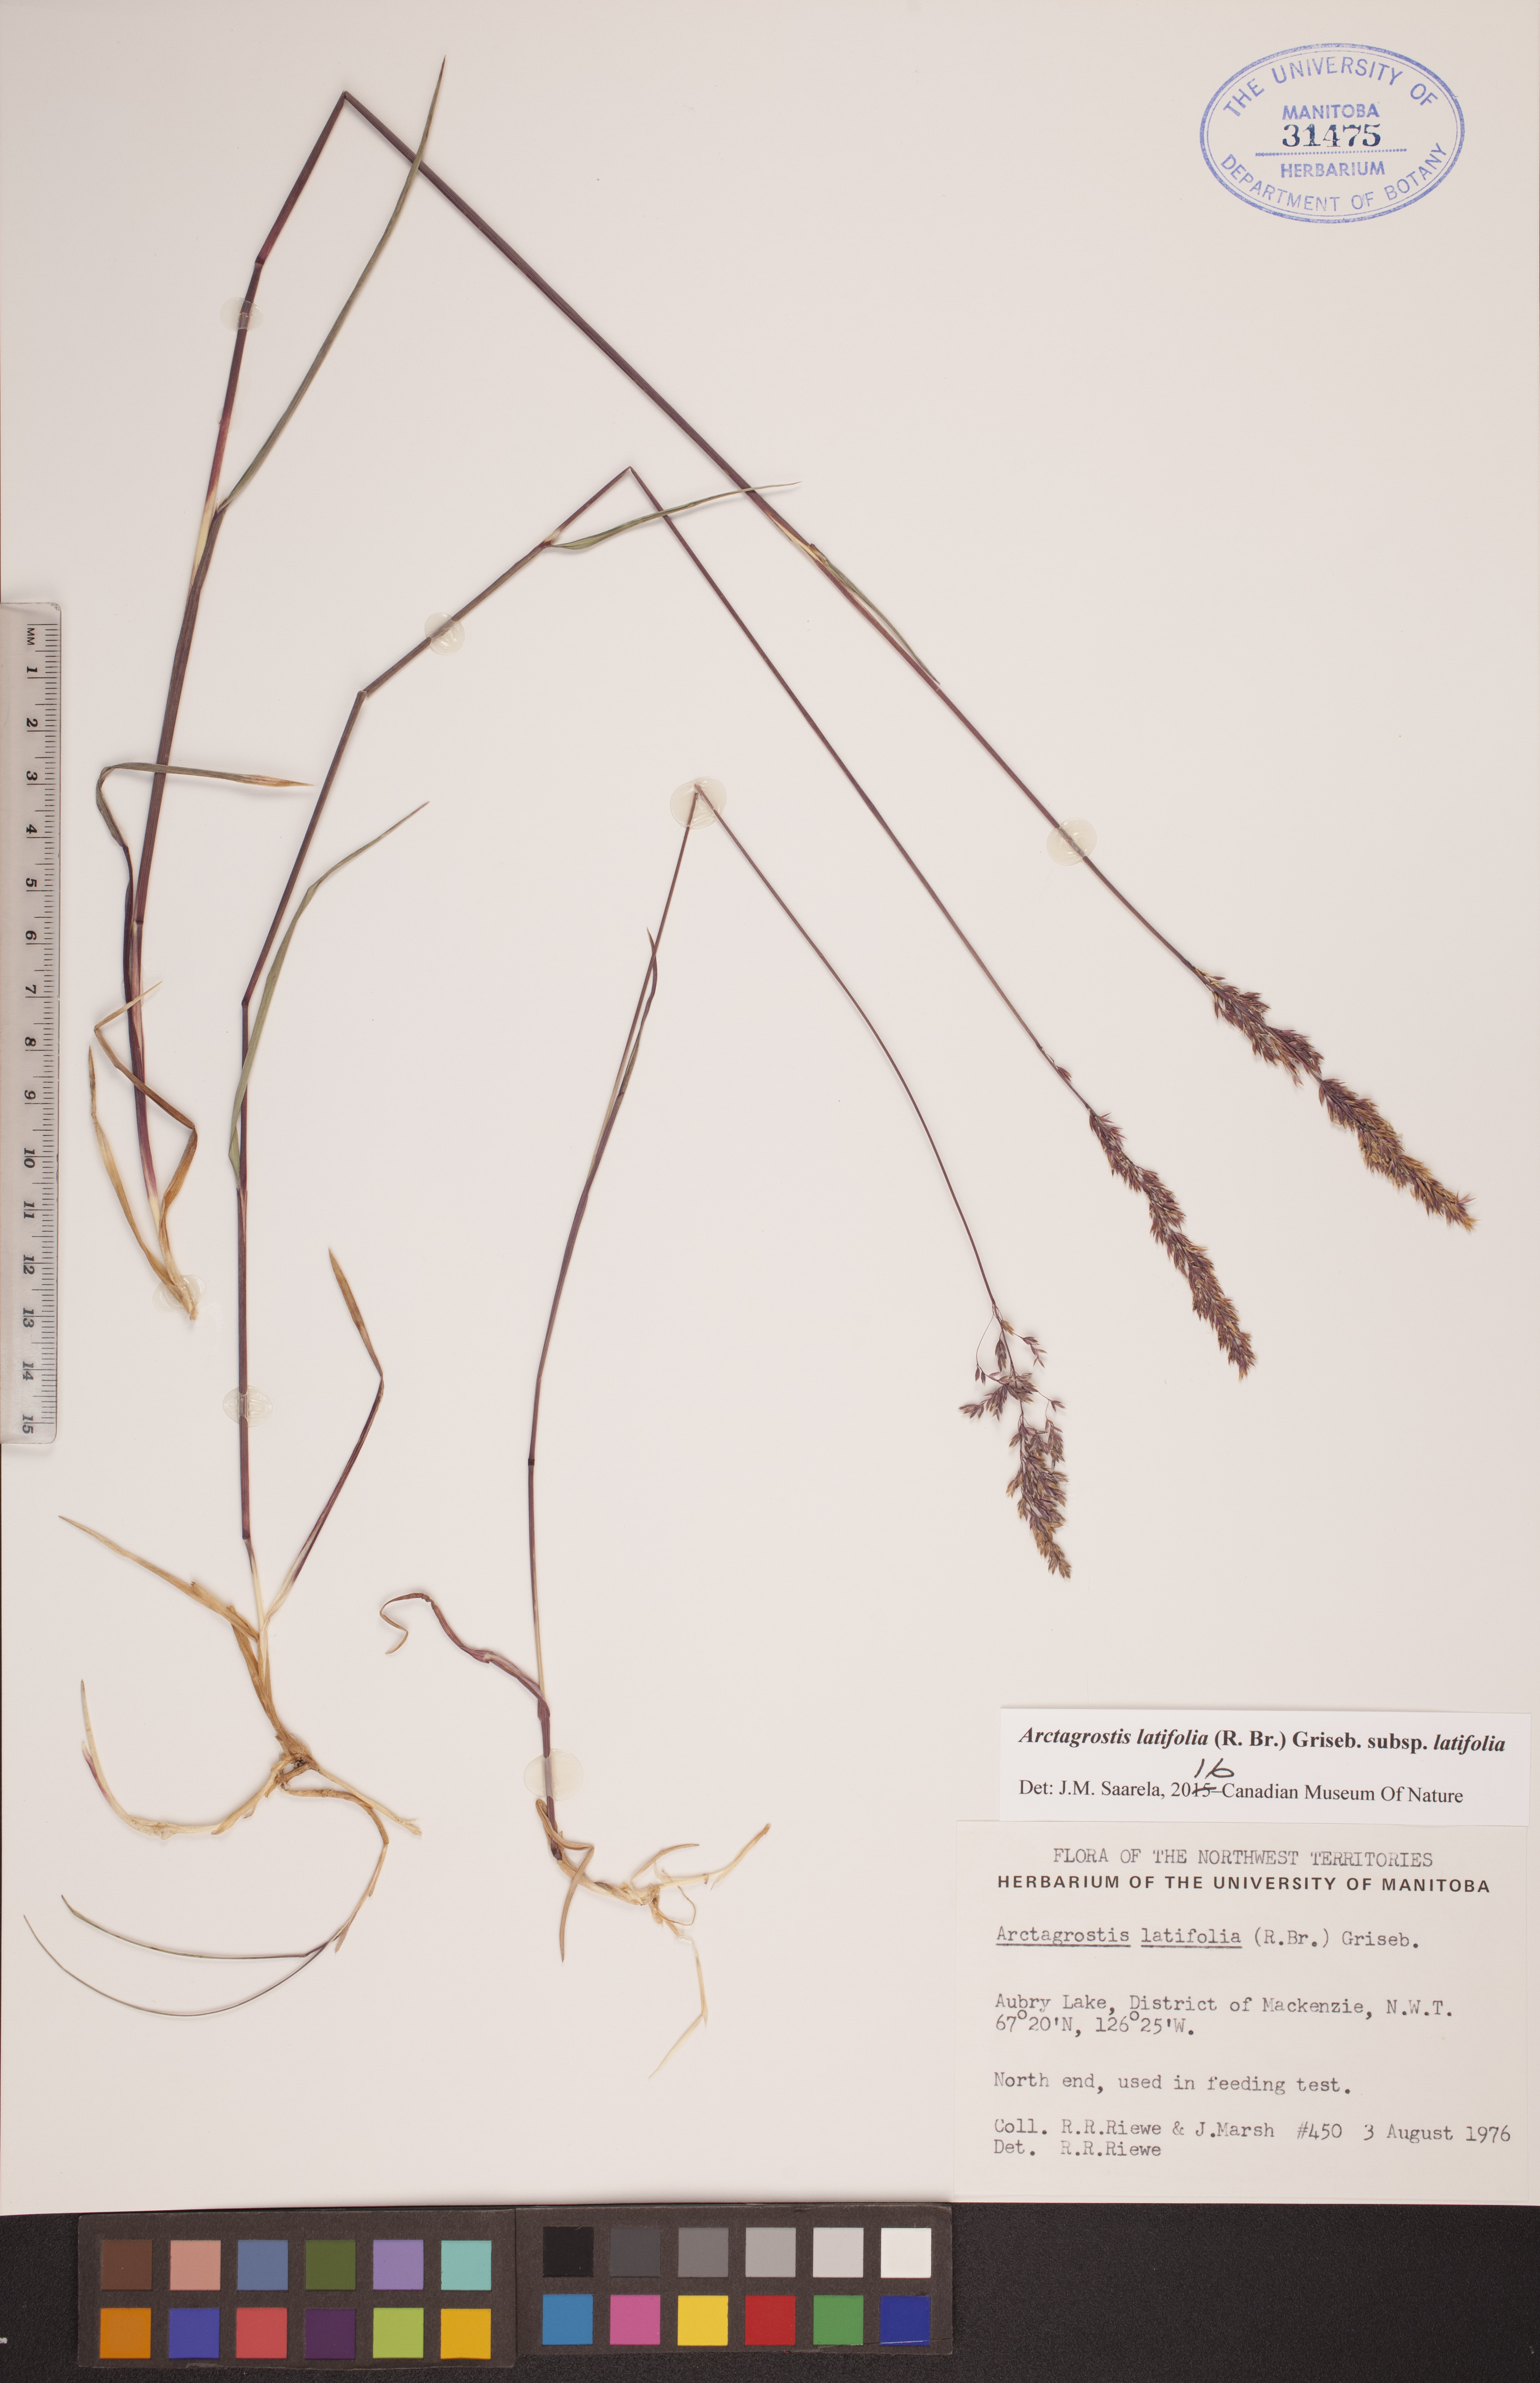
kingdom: Plantae
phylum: Tracheophyta
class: Liliopsida
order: Poales
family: Poaceae
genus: Arctagrostis
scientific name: Arctagrostis latifolia
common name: Arctic grass
